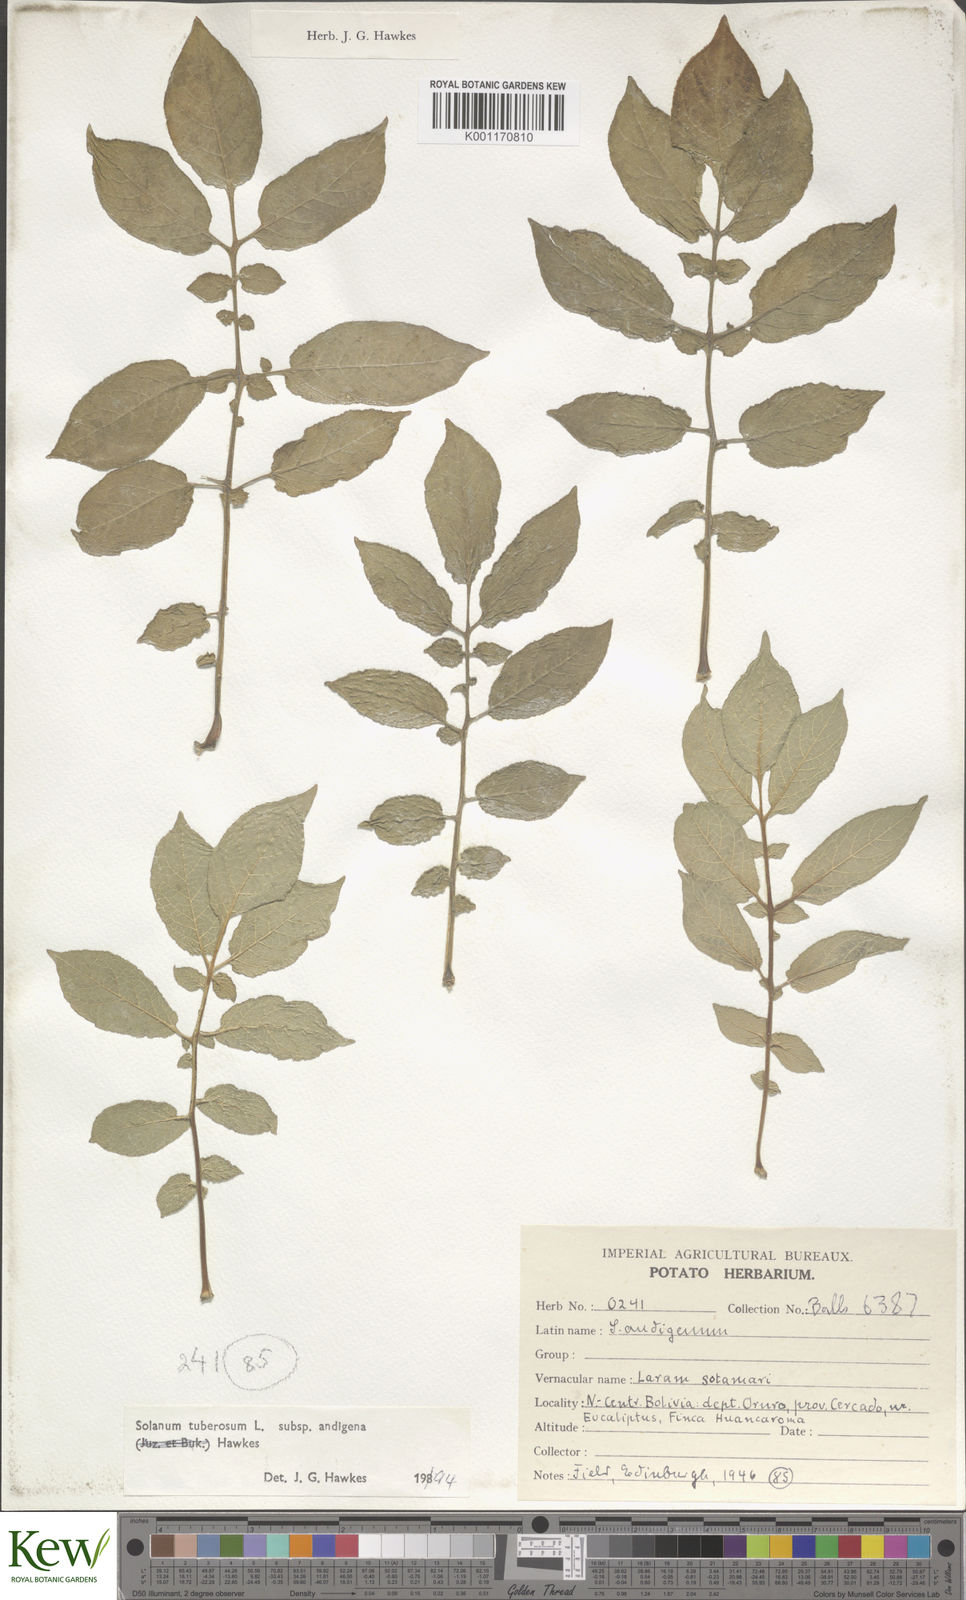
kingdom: Plantae
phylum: Tracheophyta
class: Magnoliopsida
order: Solanales
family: Solanaceae
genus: Solanum
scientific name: Solanum tuberosum
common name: Potato
